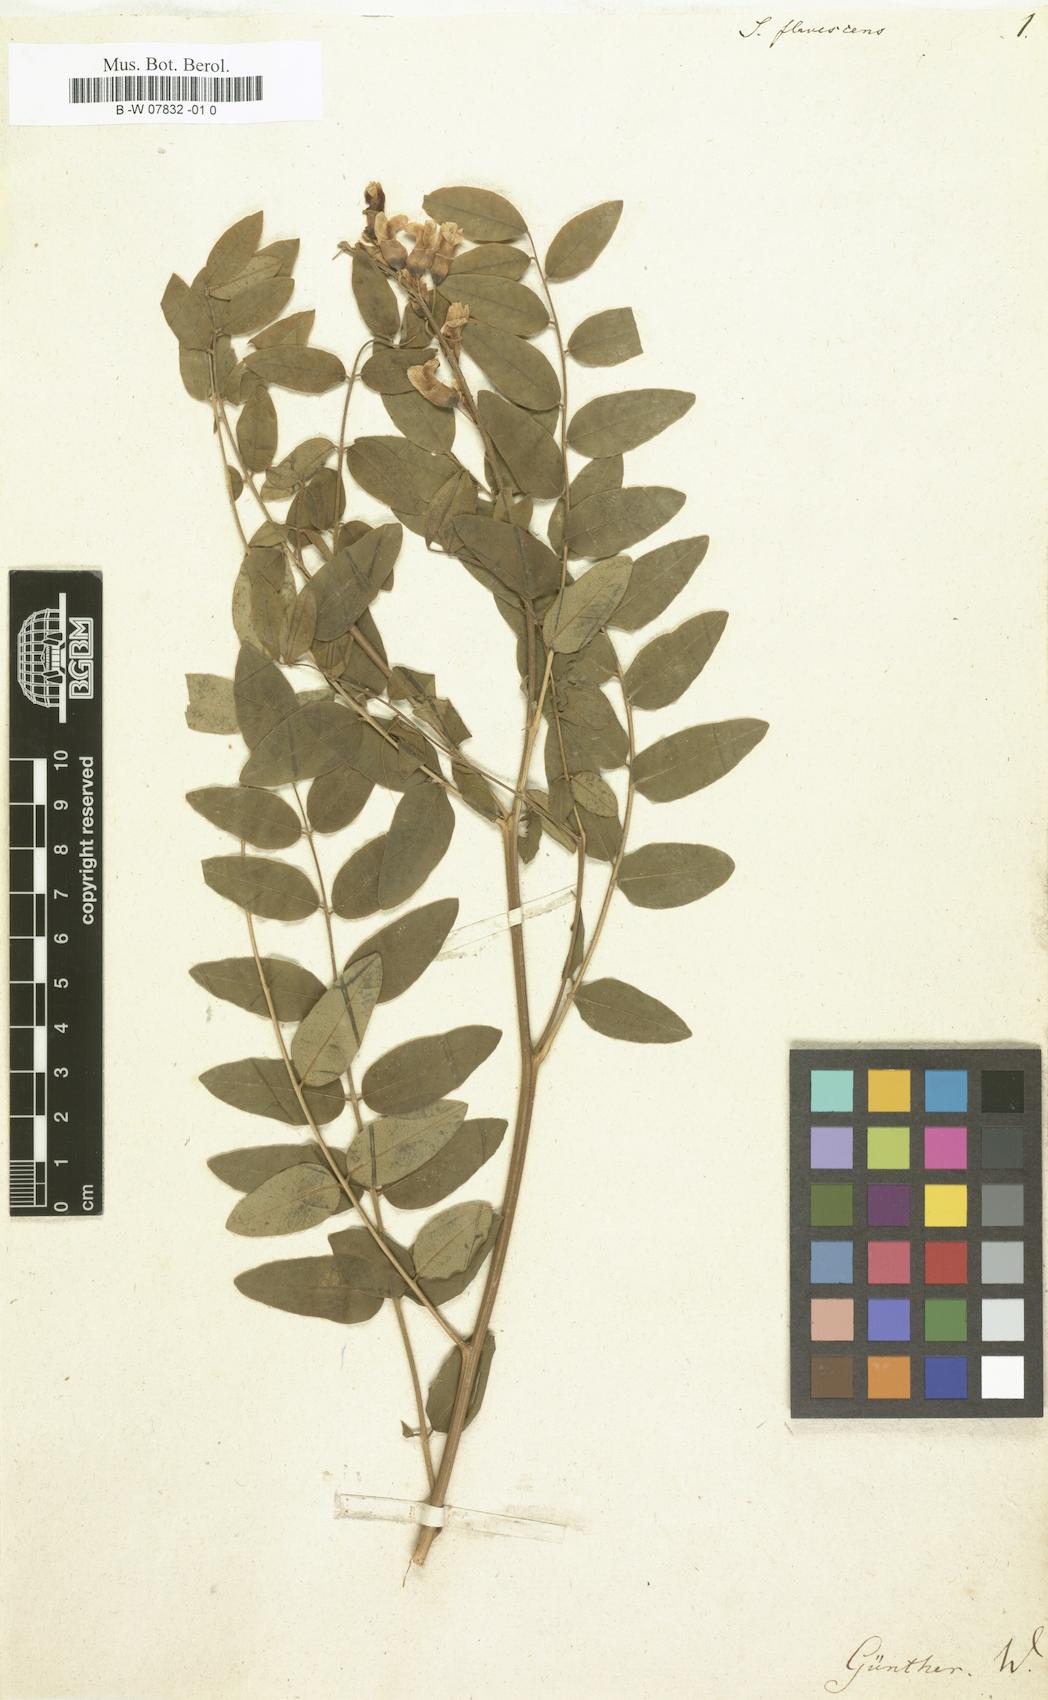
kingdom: Plantae
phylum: Tracheophyta
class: Magnoliopsida
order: Fabales
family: Fabaceae
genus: Sophora
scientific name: Sophora flavescens
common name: Shrubby sophora
